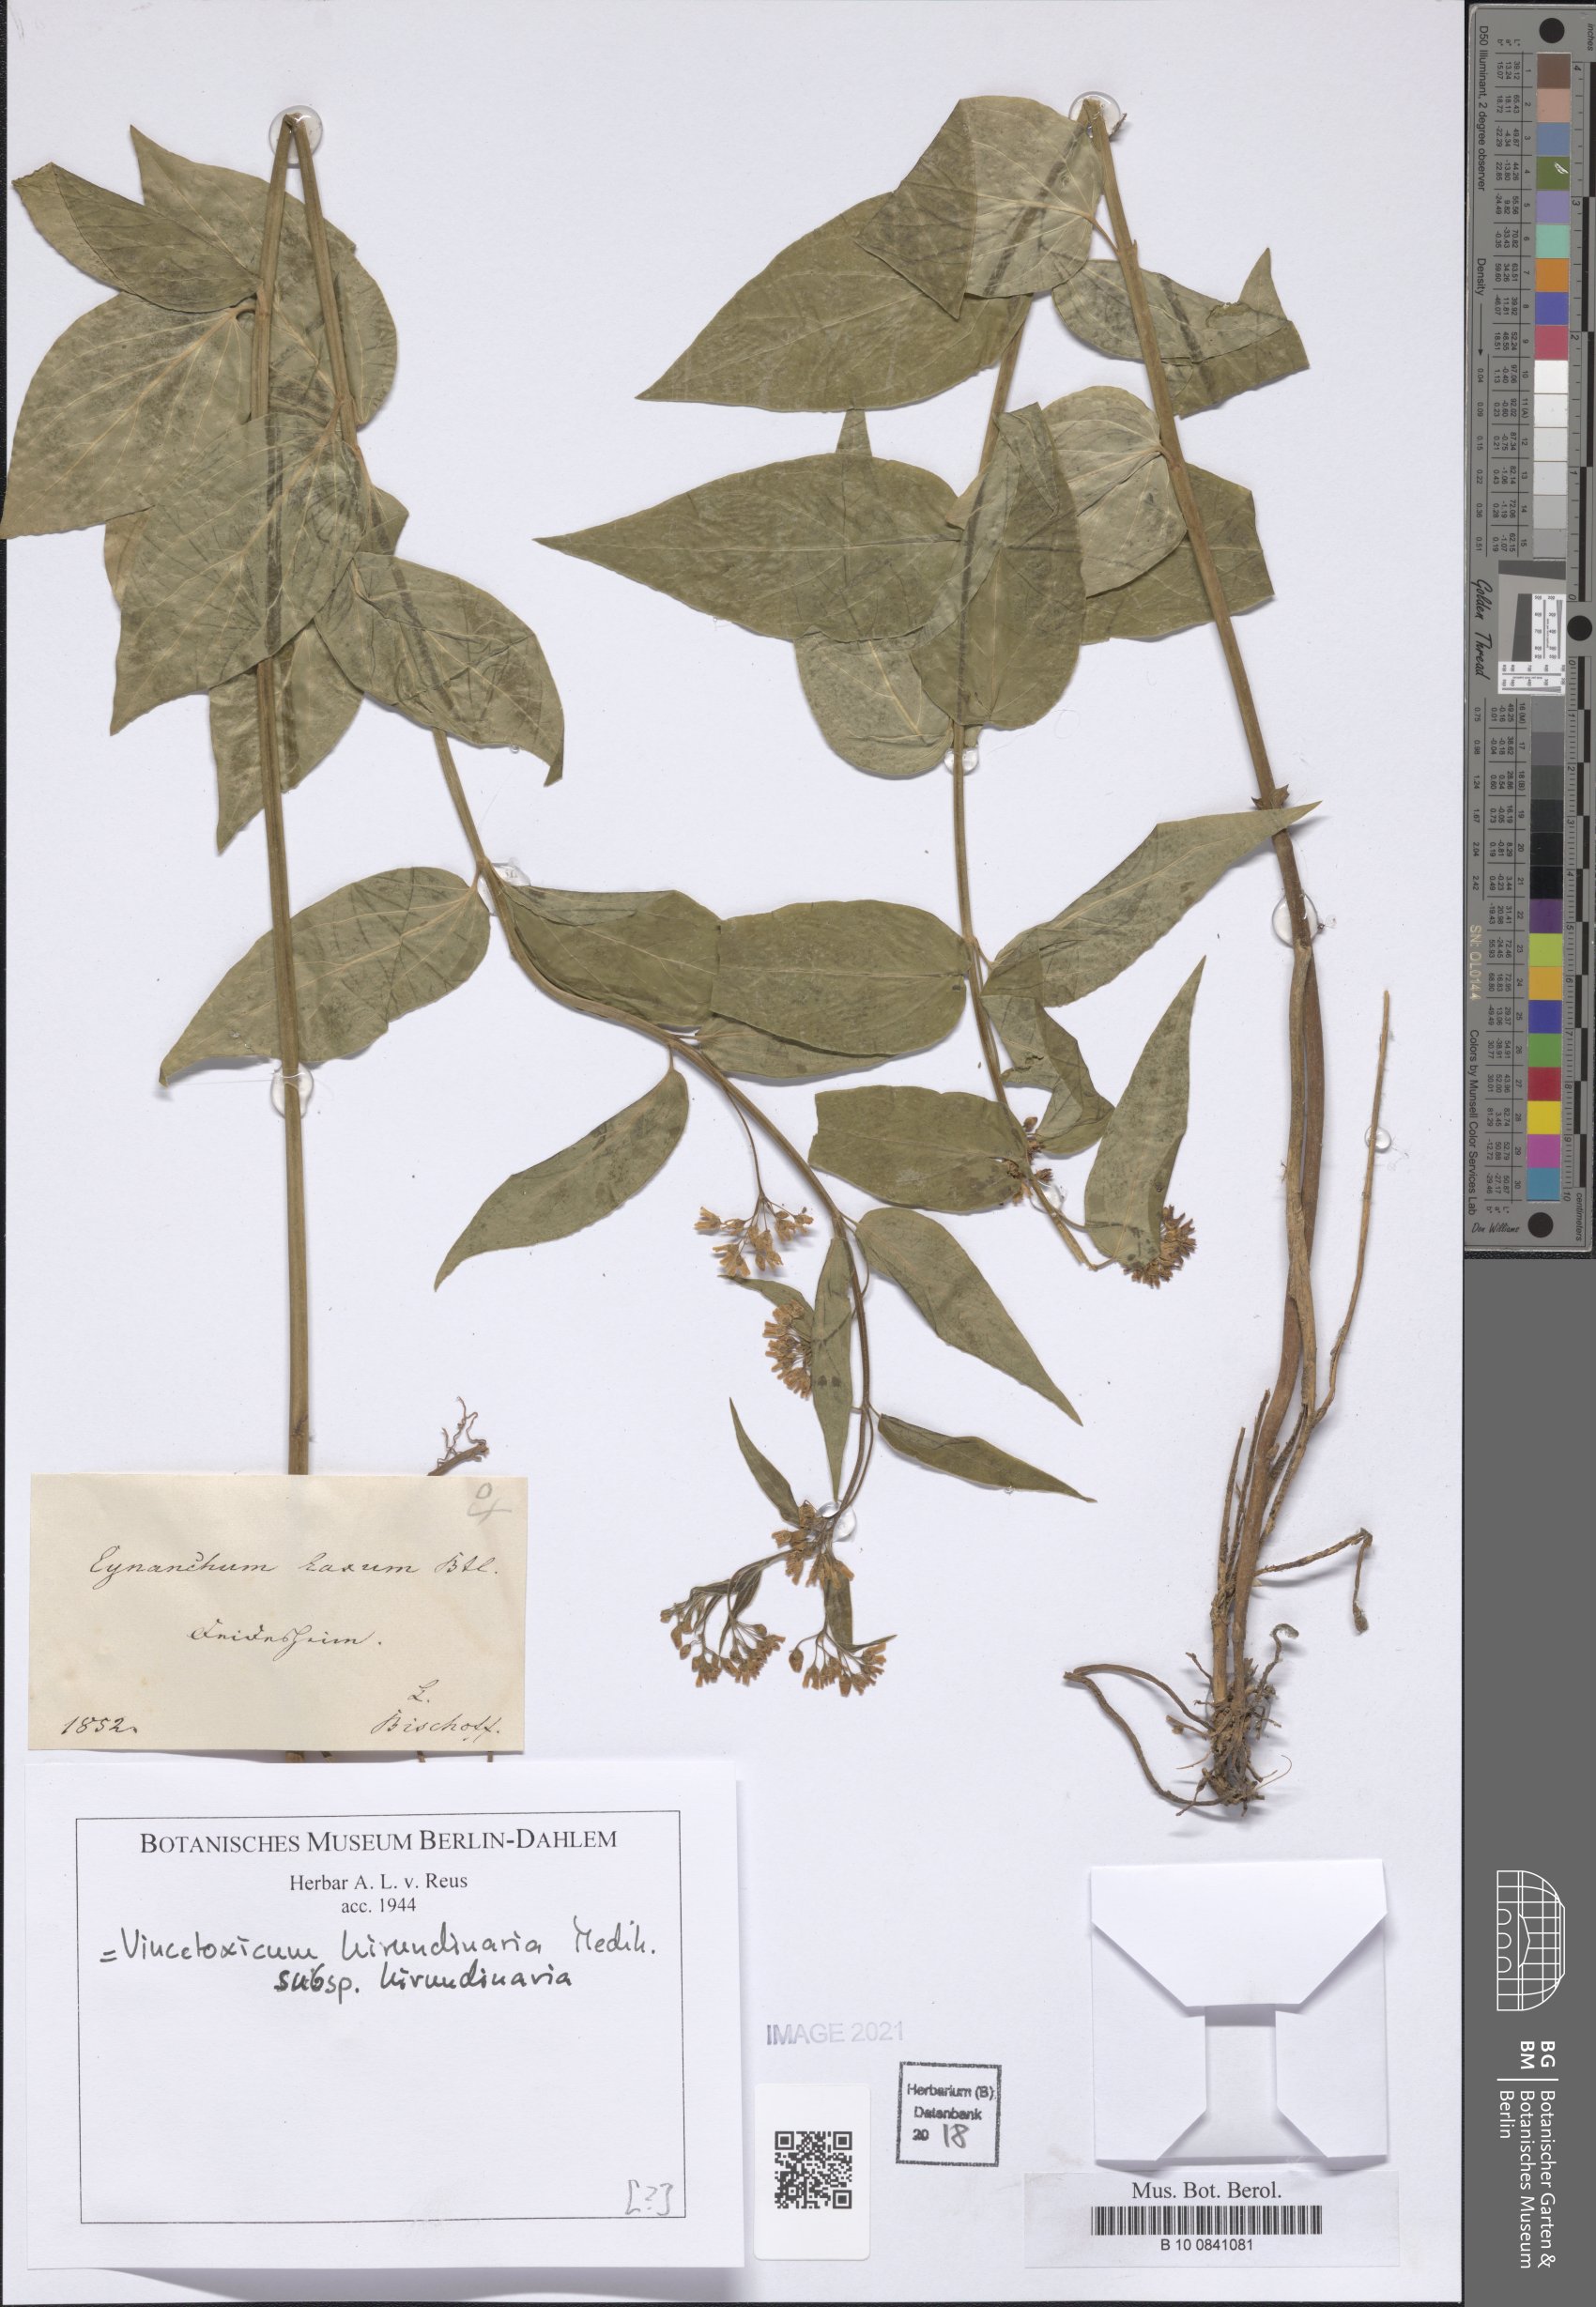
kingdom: Plantae
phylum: Tracheophyta
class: Magnoliopsida
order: Gentianales
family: Apocynaceae
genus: Vincetoxicum
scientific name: Vincetoxicum hirundinaria
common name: White swallowwort
